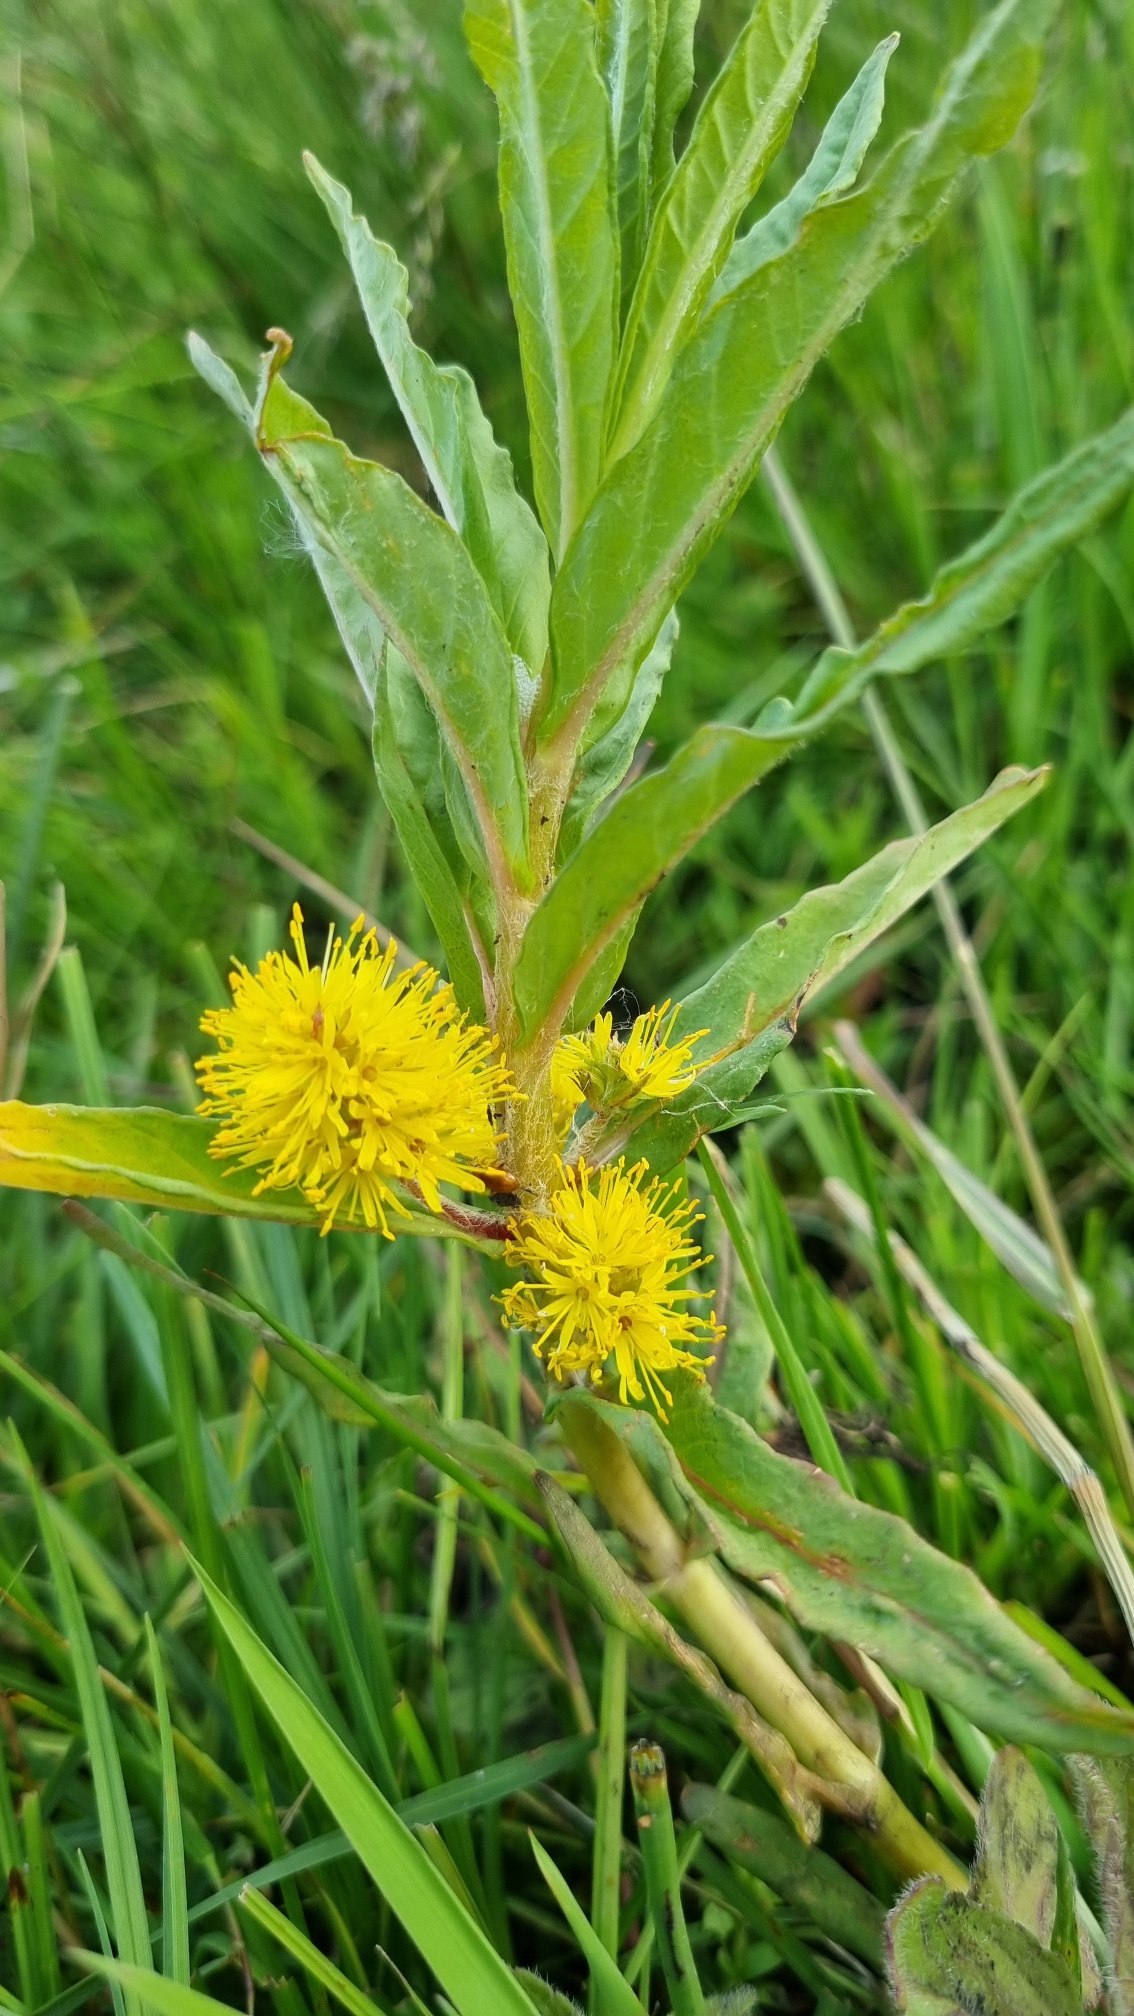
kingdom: Plantae
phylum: Tracheophyta
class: Magnoliopsida
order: Ericales
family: Primulaceae
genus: Lysimachia
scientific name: Lysimachia thyrsiflora
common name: Dusk-fredløs
